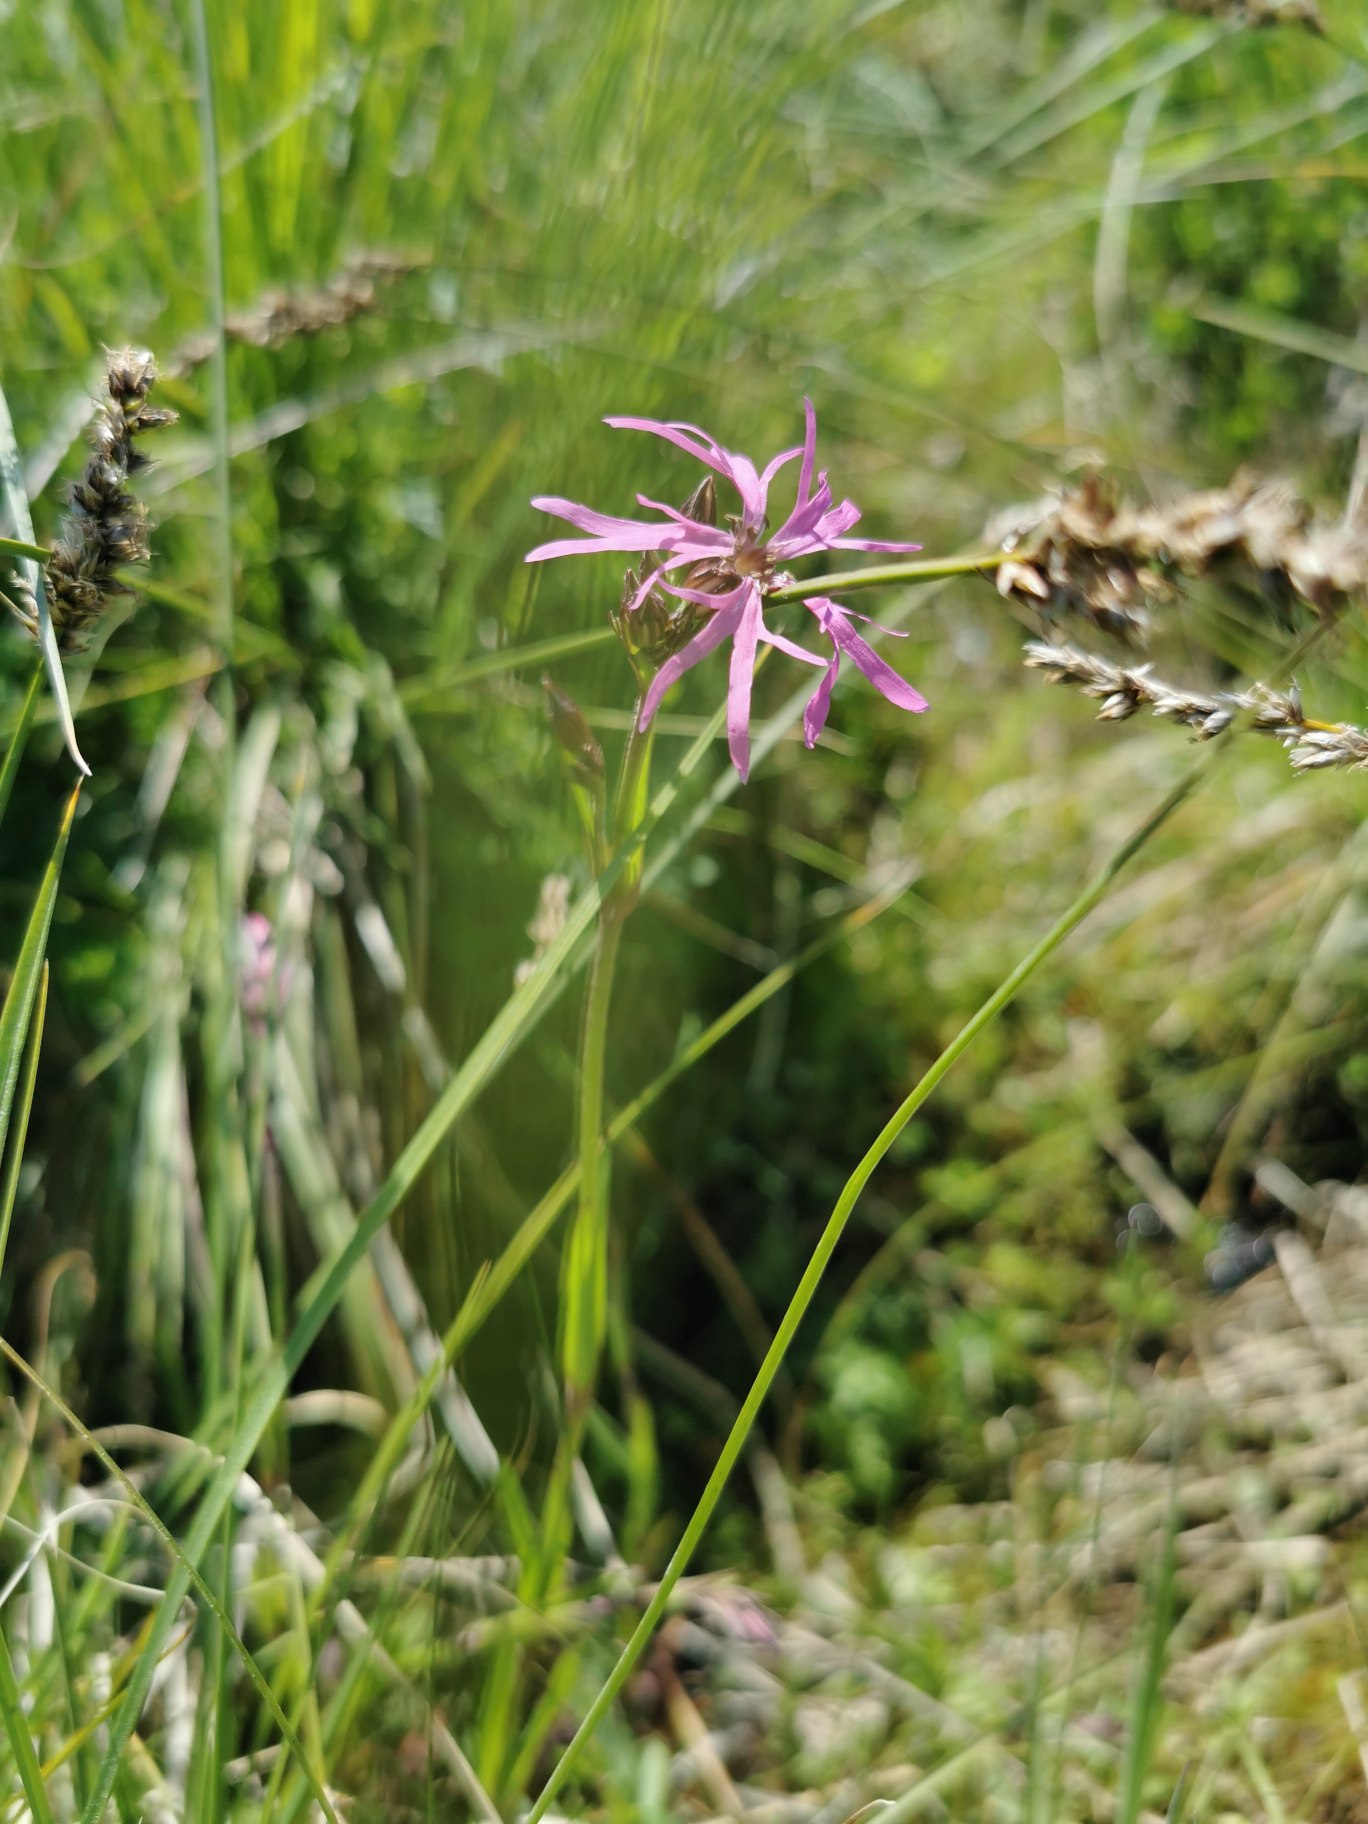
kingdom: Plantae
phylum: Tracheophyta
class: Magnoliopsida
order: Caryophyllales
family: Caryophyllaceae
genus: Silene
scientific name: Silene flos-cuculi
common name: Trævlekrone
